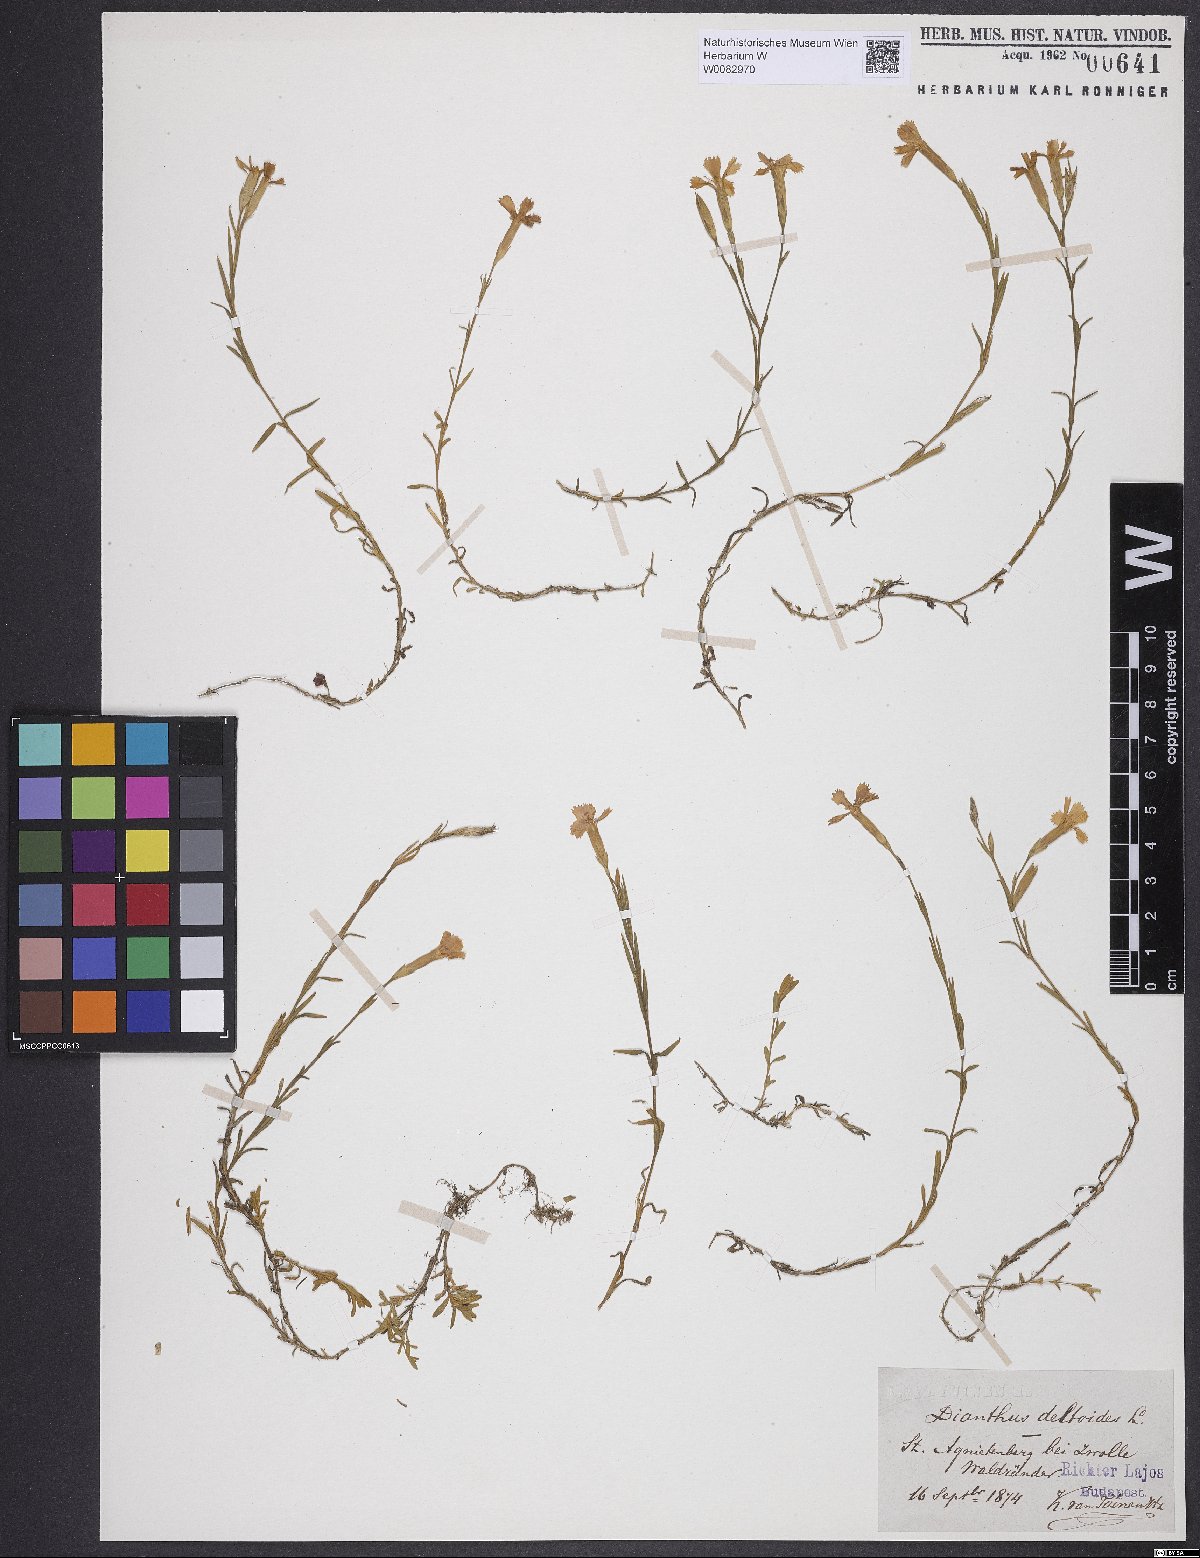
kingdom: Plantae
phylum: Tracheophyta
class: Magnoliopsida
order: Caryophyllales
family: Caryophyllaceae
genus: Dianthus
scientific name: Dianthus deltoides
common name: Maiden pink
